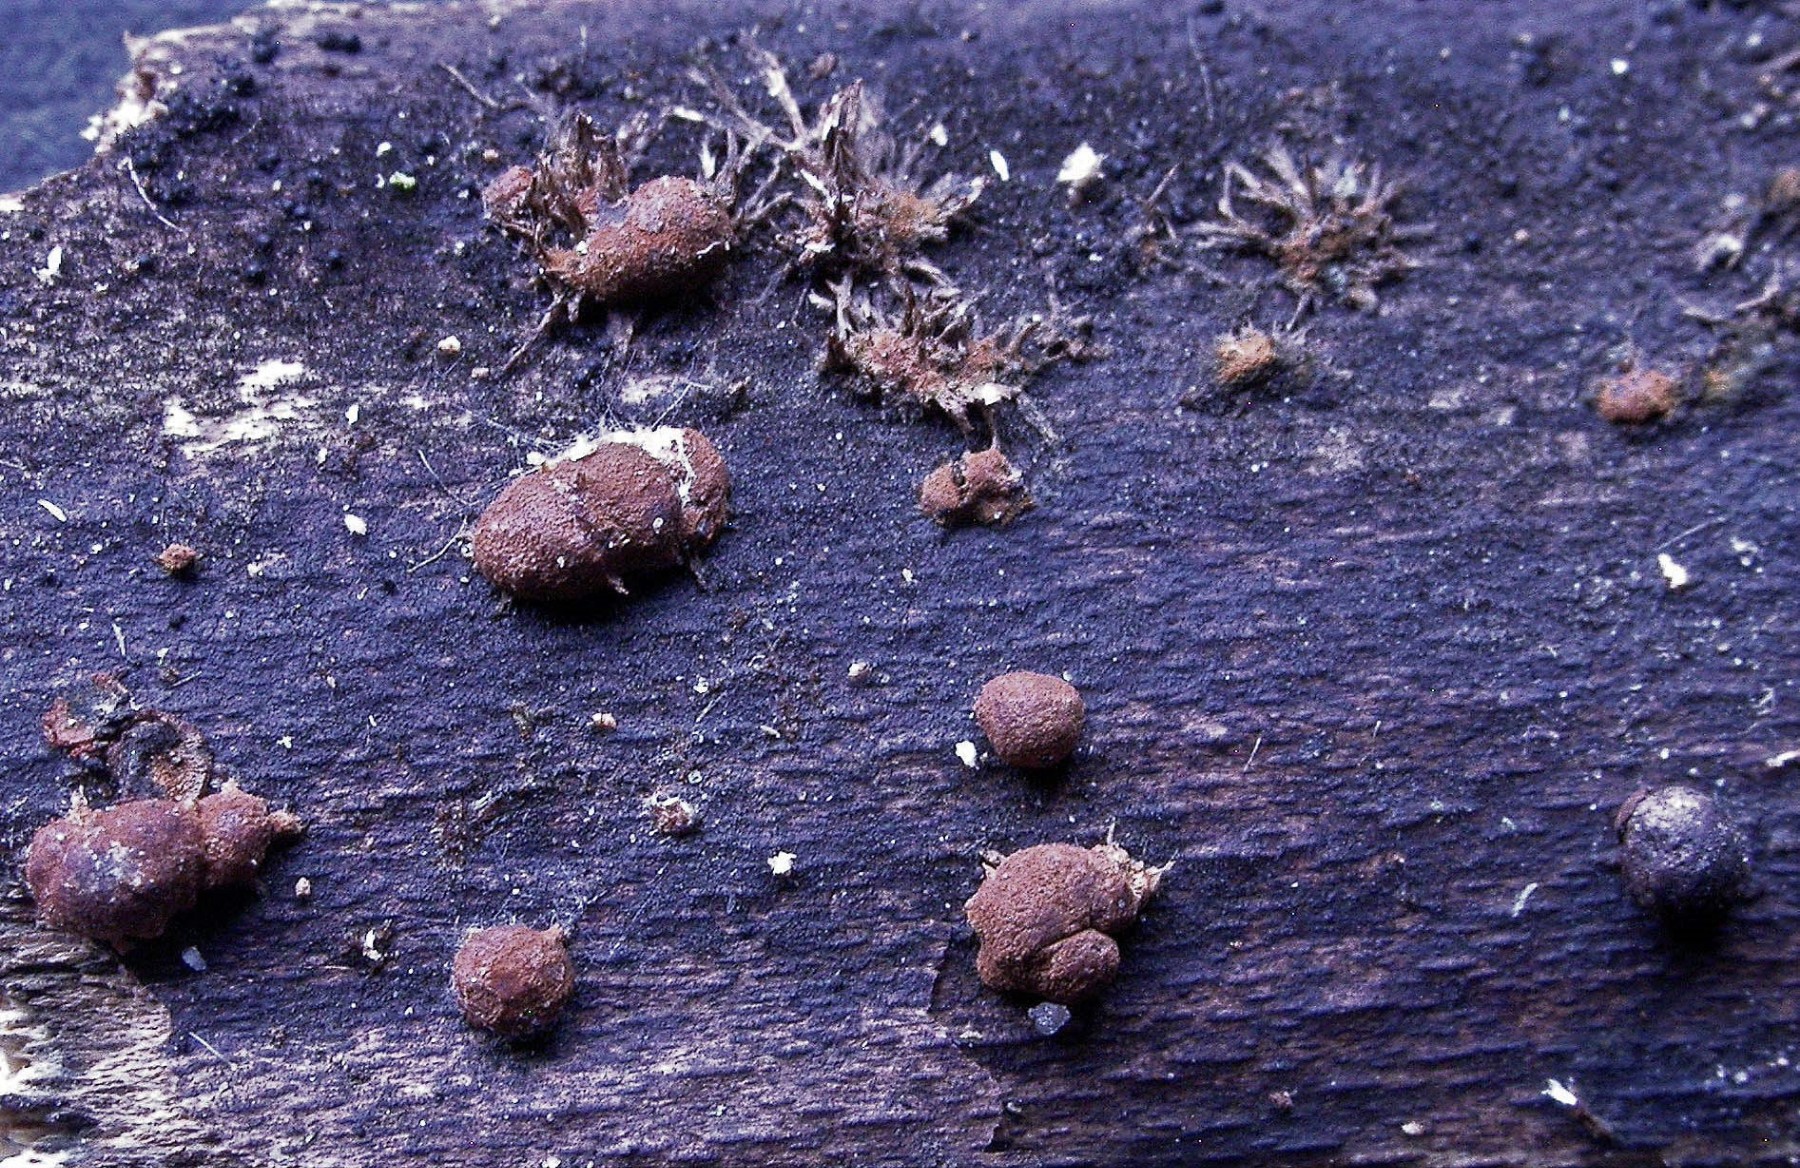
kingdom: Fungi
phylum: Ascomycota
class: Sordariomycetes
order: Xylariales
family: Hypoxylaceae
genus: Hypoxylon
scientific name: Hypoxylon howeanum
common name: halvkugleformet kulbær
